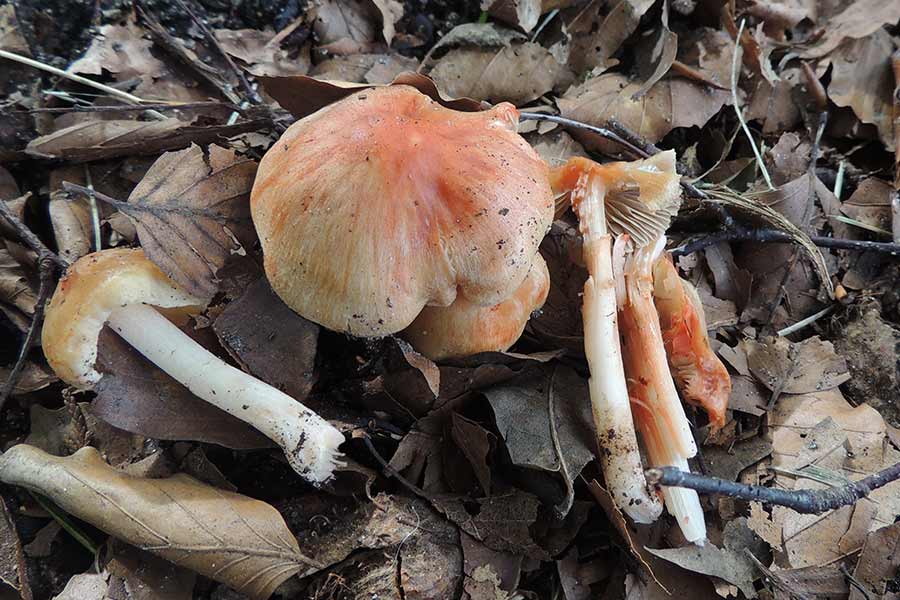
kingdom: Fungi
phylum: Basidiomycota
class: Agaricomycetes
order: Agaricales
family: Inocybaceae
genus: Inocybe
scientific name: Inocybe godeyi
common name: orangerødmende trævlhat
